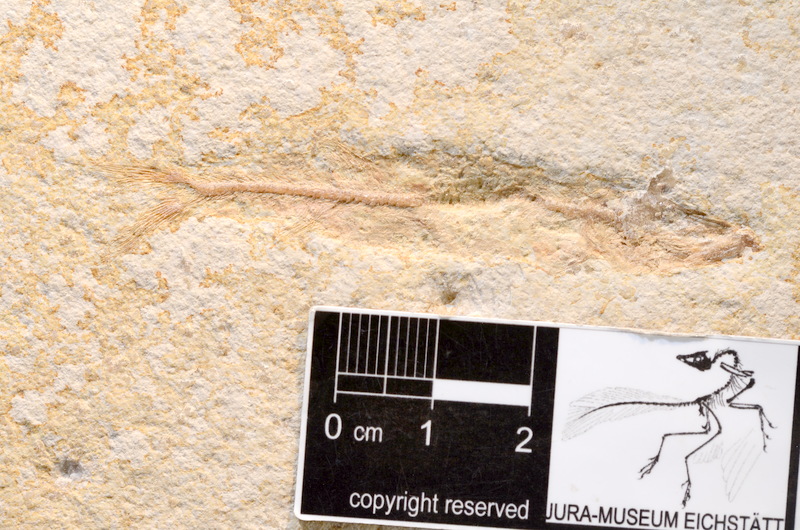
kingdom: Animalia
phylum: Chordata
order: Elopiformes
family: Anaethalionidae
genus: Anaethalion
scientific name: Anaethalion angustissimus
